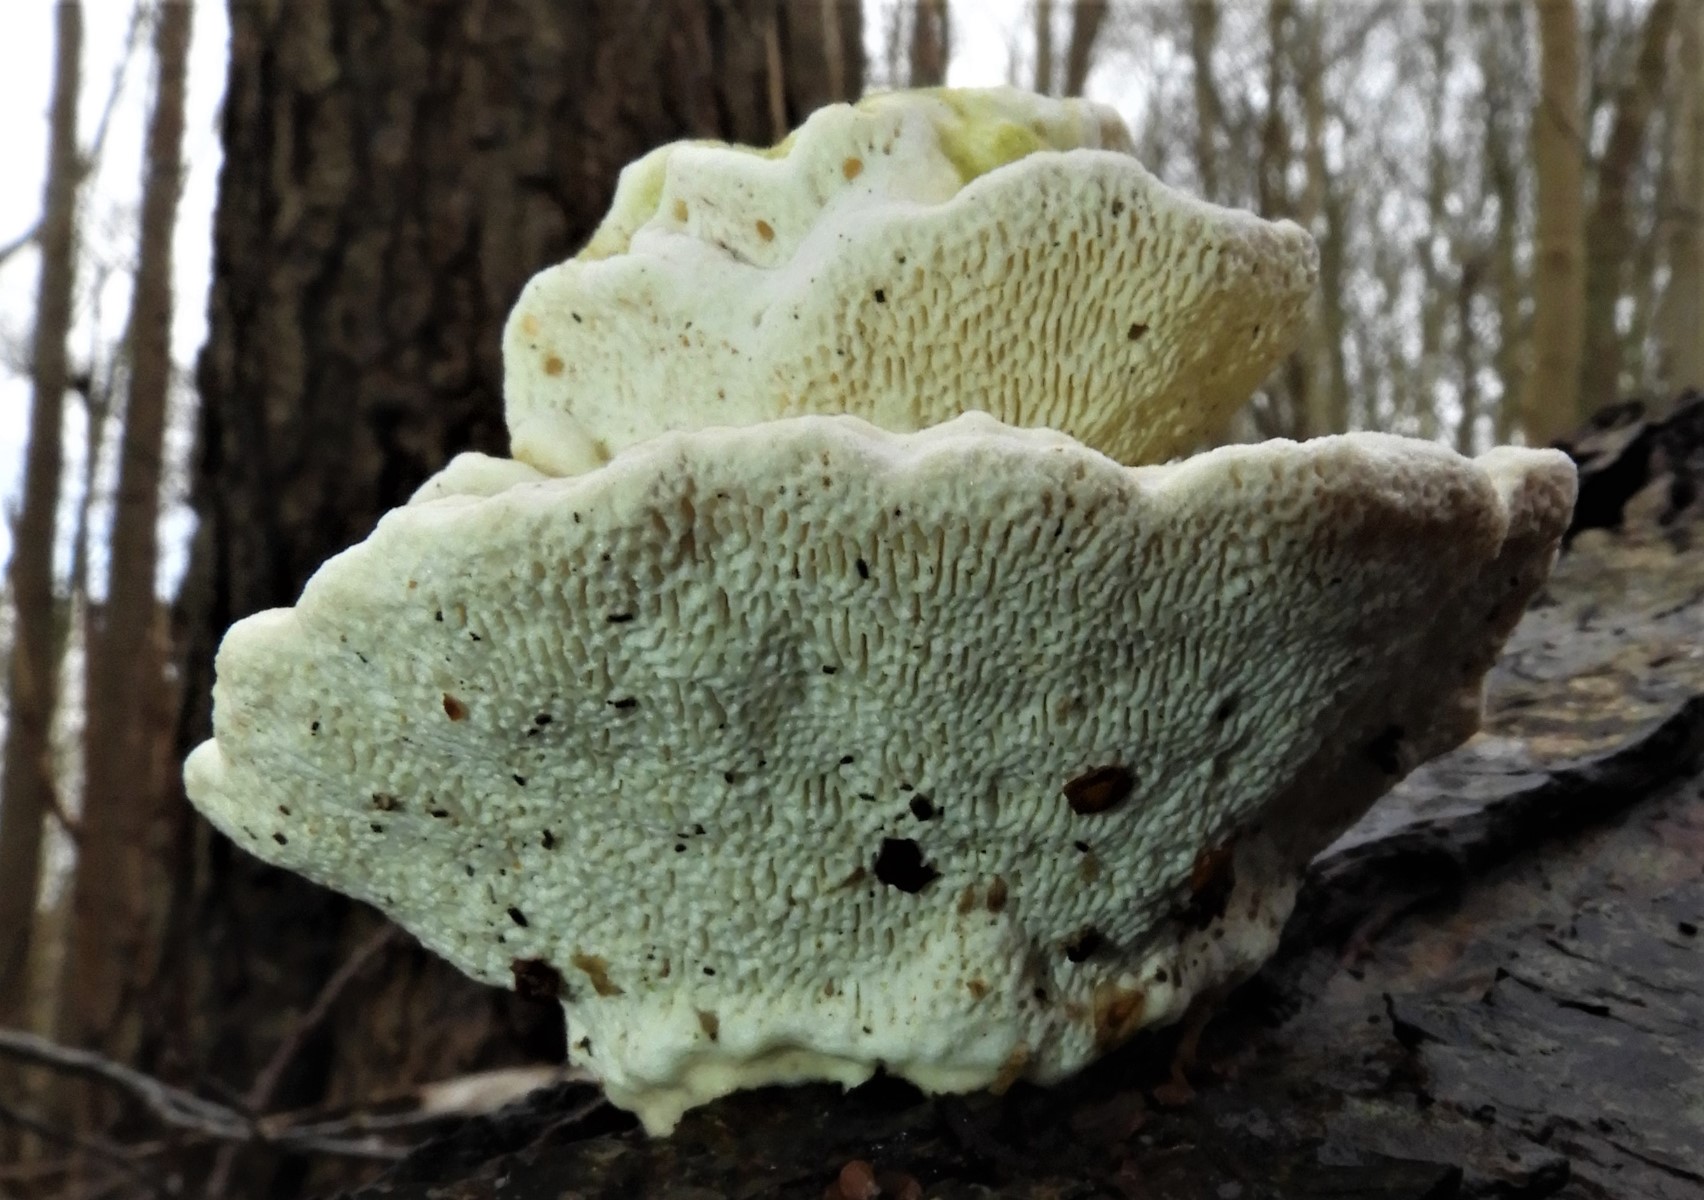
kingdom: Fungi
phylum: Basidiomycota
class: Agaricomycetes
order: Polyporales
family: Polyporaceae
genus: Trametes
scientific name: Trametes gibbosa
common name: puklet læderporesvamp
